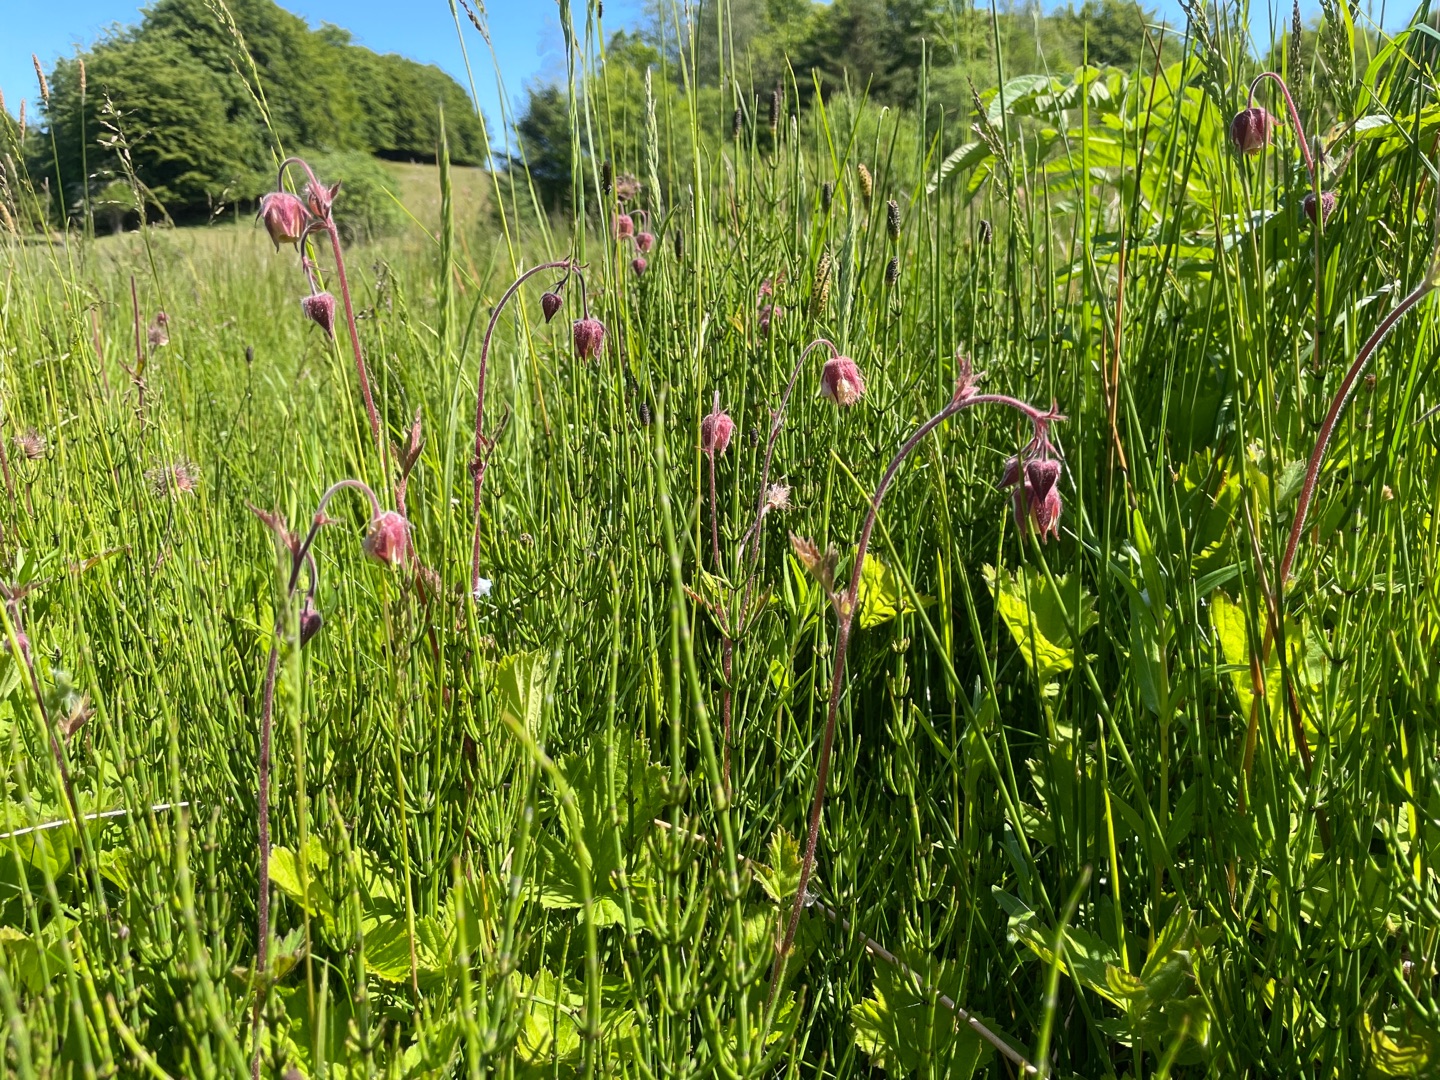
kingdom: Plantae
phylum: Tracheophyta
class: Magnoliopsida
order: Rosales
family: Rosaceae
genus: Geum
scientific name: Geum rivale
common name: Eng-nellikerod
